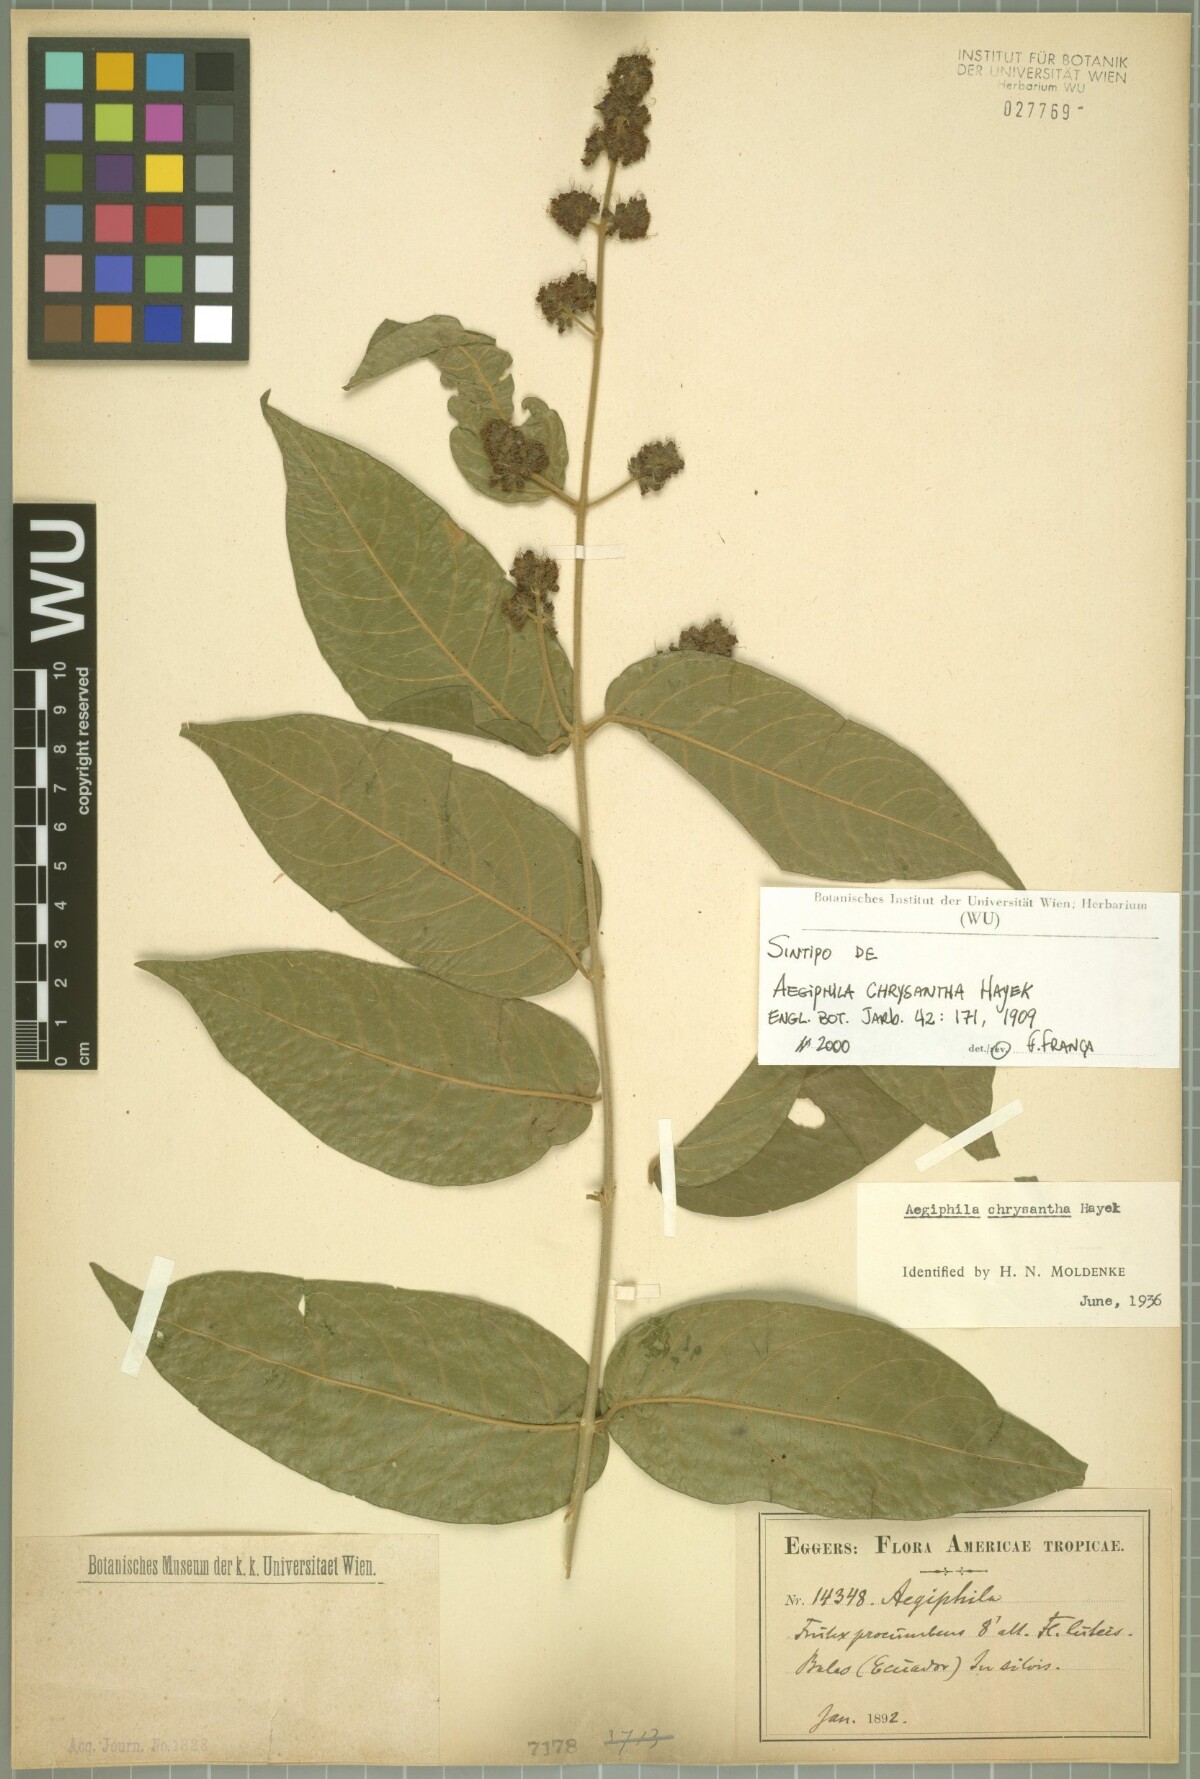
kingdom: Plantae
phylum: Tracheophyta
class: Magnoliopsida
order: Lamiales
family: Lamiaceae
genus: Aegiphila
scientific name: Aegiphila vitelliniflora
